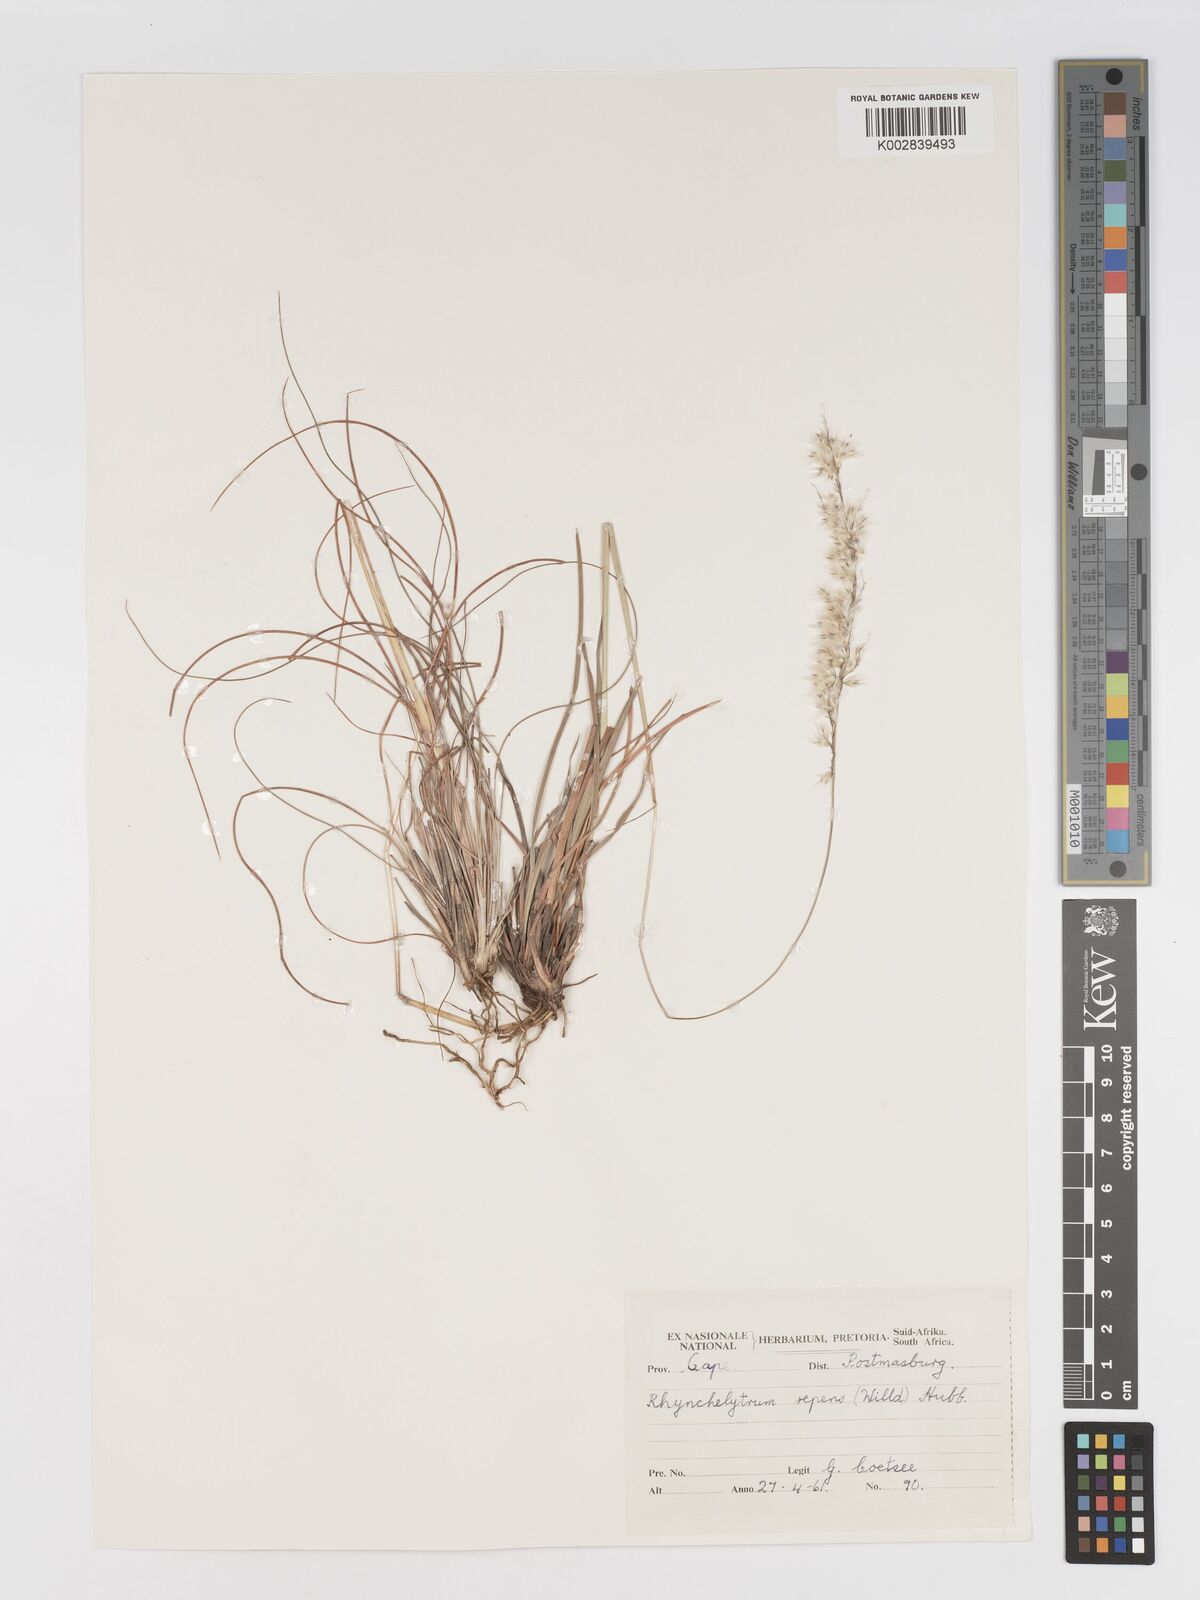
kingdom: Plantae
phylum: Tracheophyta
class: Liliopsida
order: Poales
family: Poaceae
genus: Melinis
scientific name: Melinis nerviglumis
